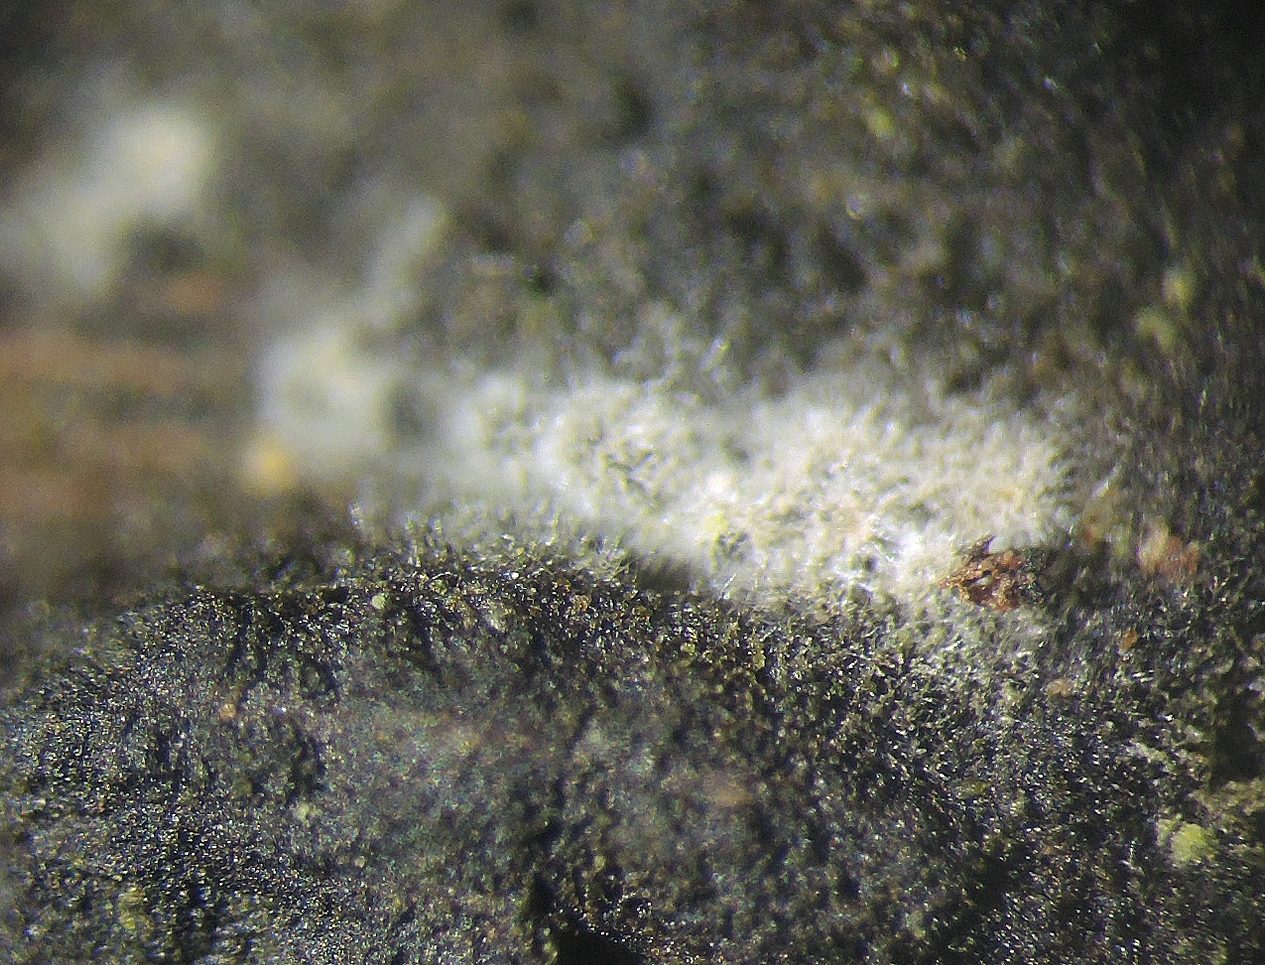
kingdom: Fungi
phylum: Ascomycota
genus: Spermospora
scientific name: Spermospora
